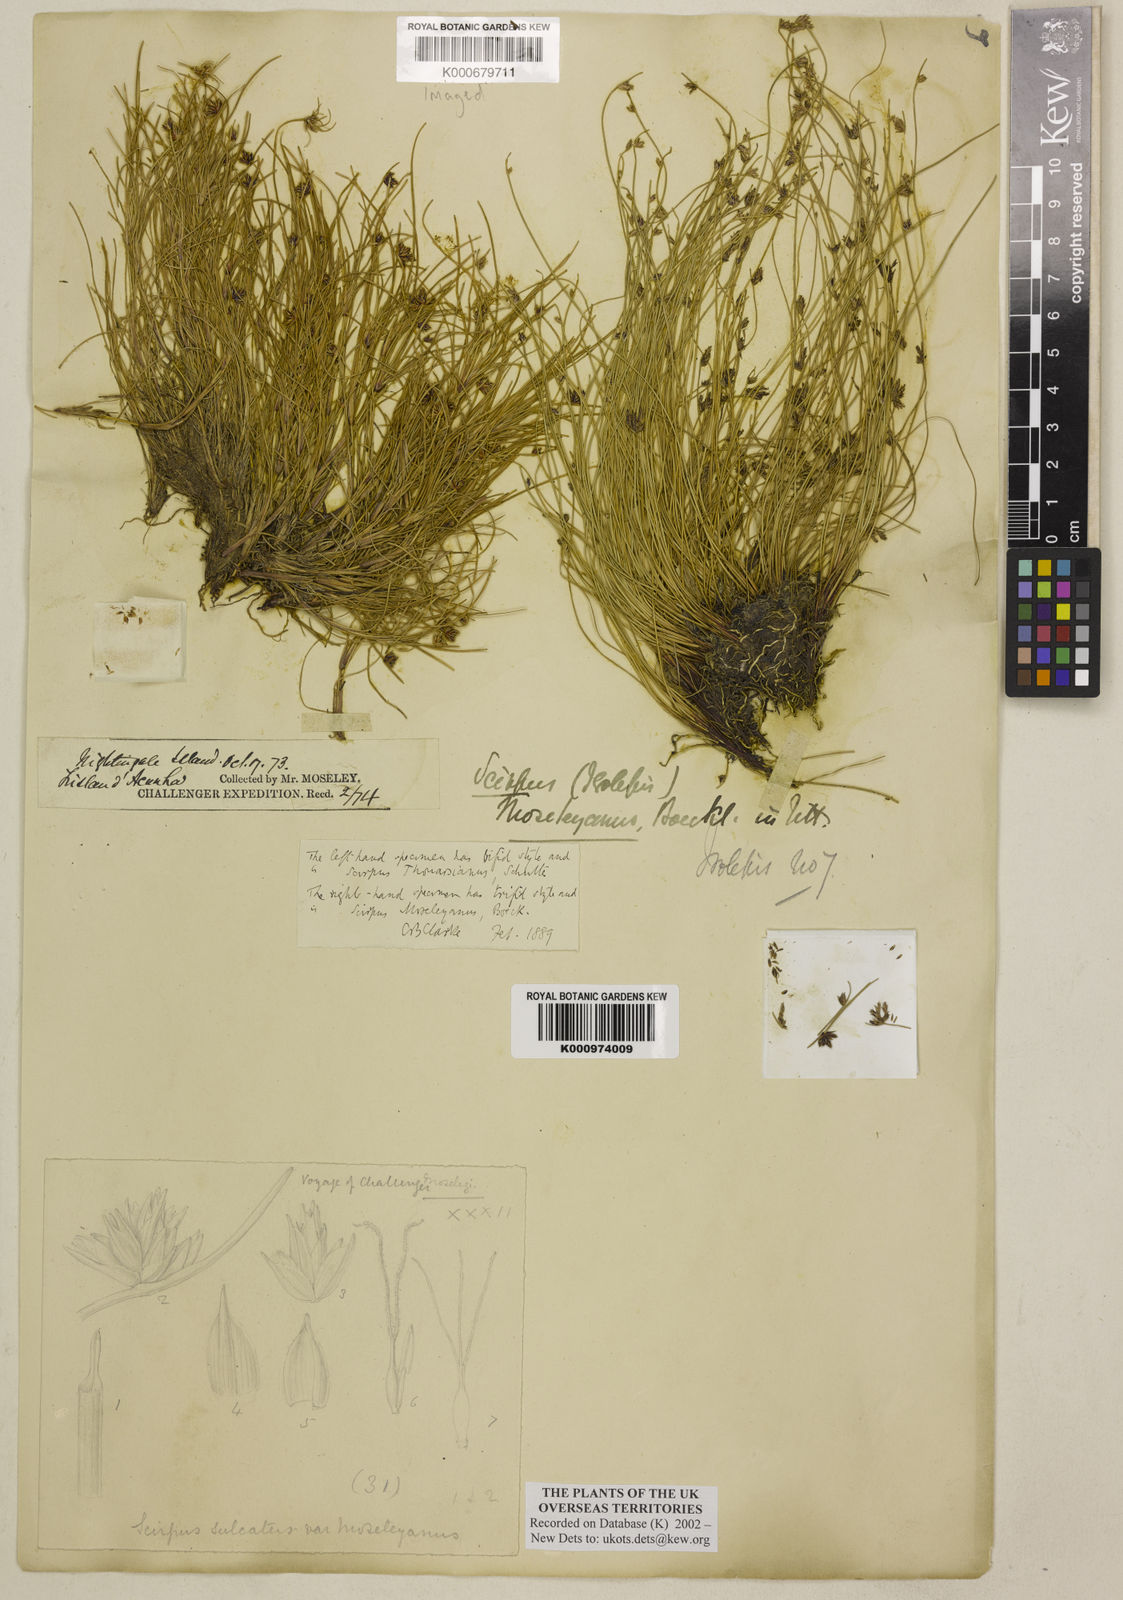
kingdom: Plantae
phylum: Tracheophyta
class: Liliopsida
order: Poales
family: Cyperaceae
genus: Isolepis
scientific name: Isolepis moseleyana
